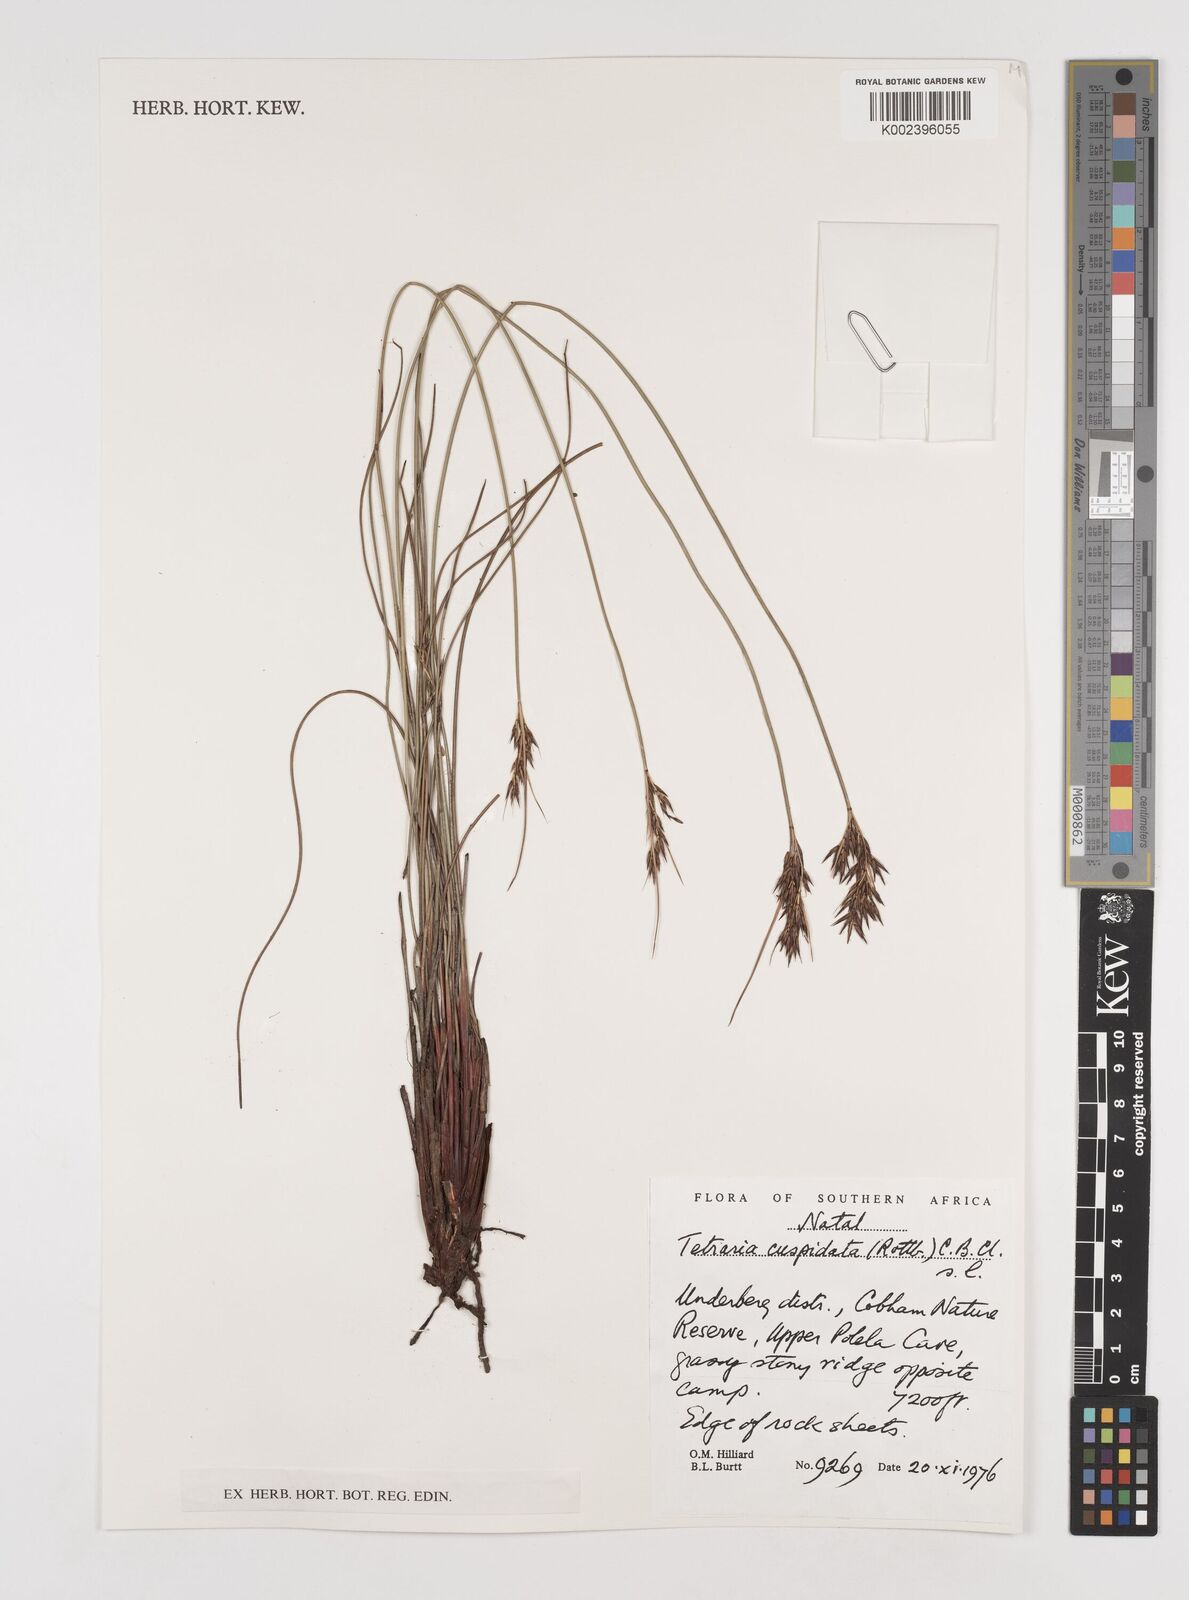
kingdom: Plantae
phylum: Tracheophyta
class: Liliopsida
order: Poales
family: Cyperaceae
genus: Schoenus
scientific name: Schoenus cuspidatus
